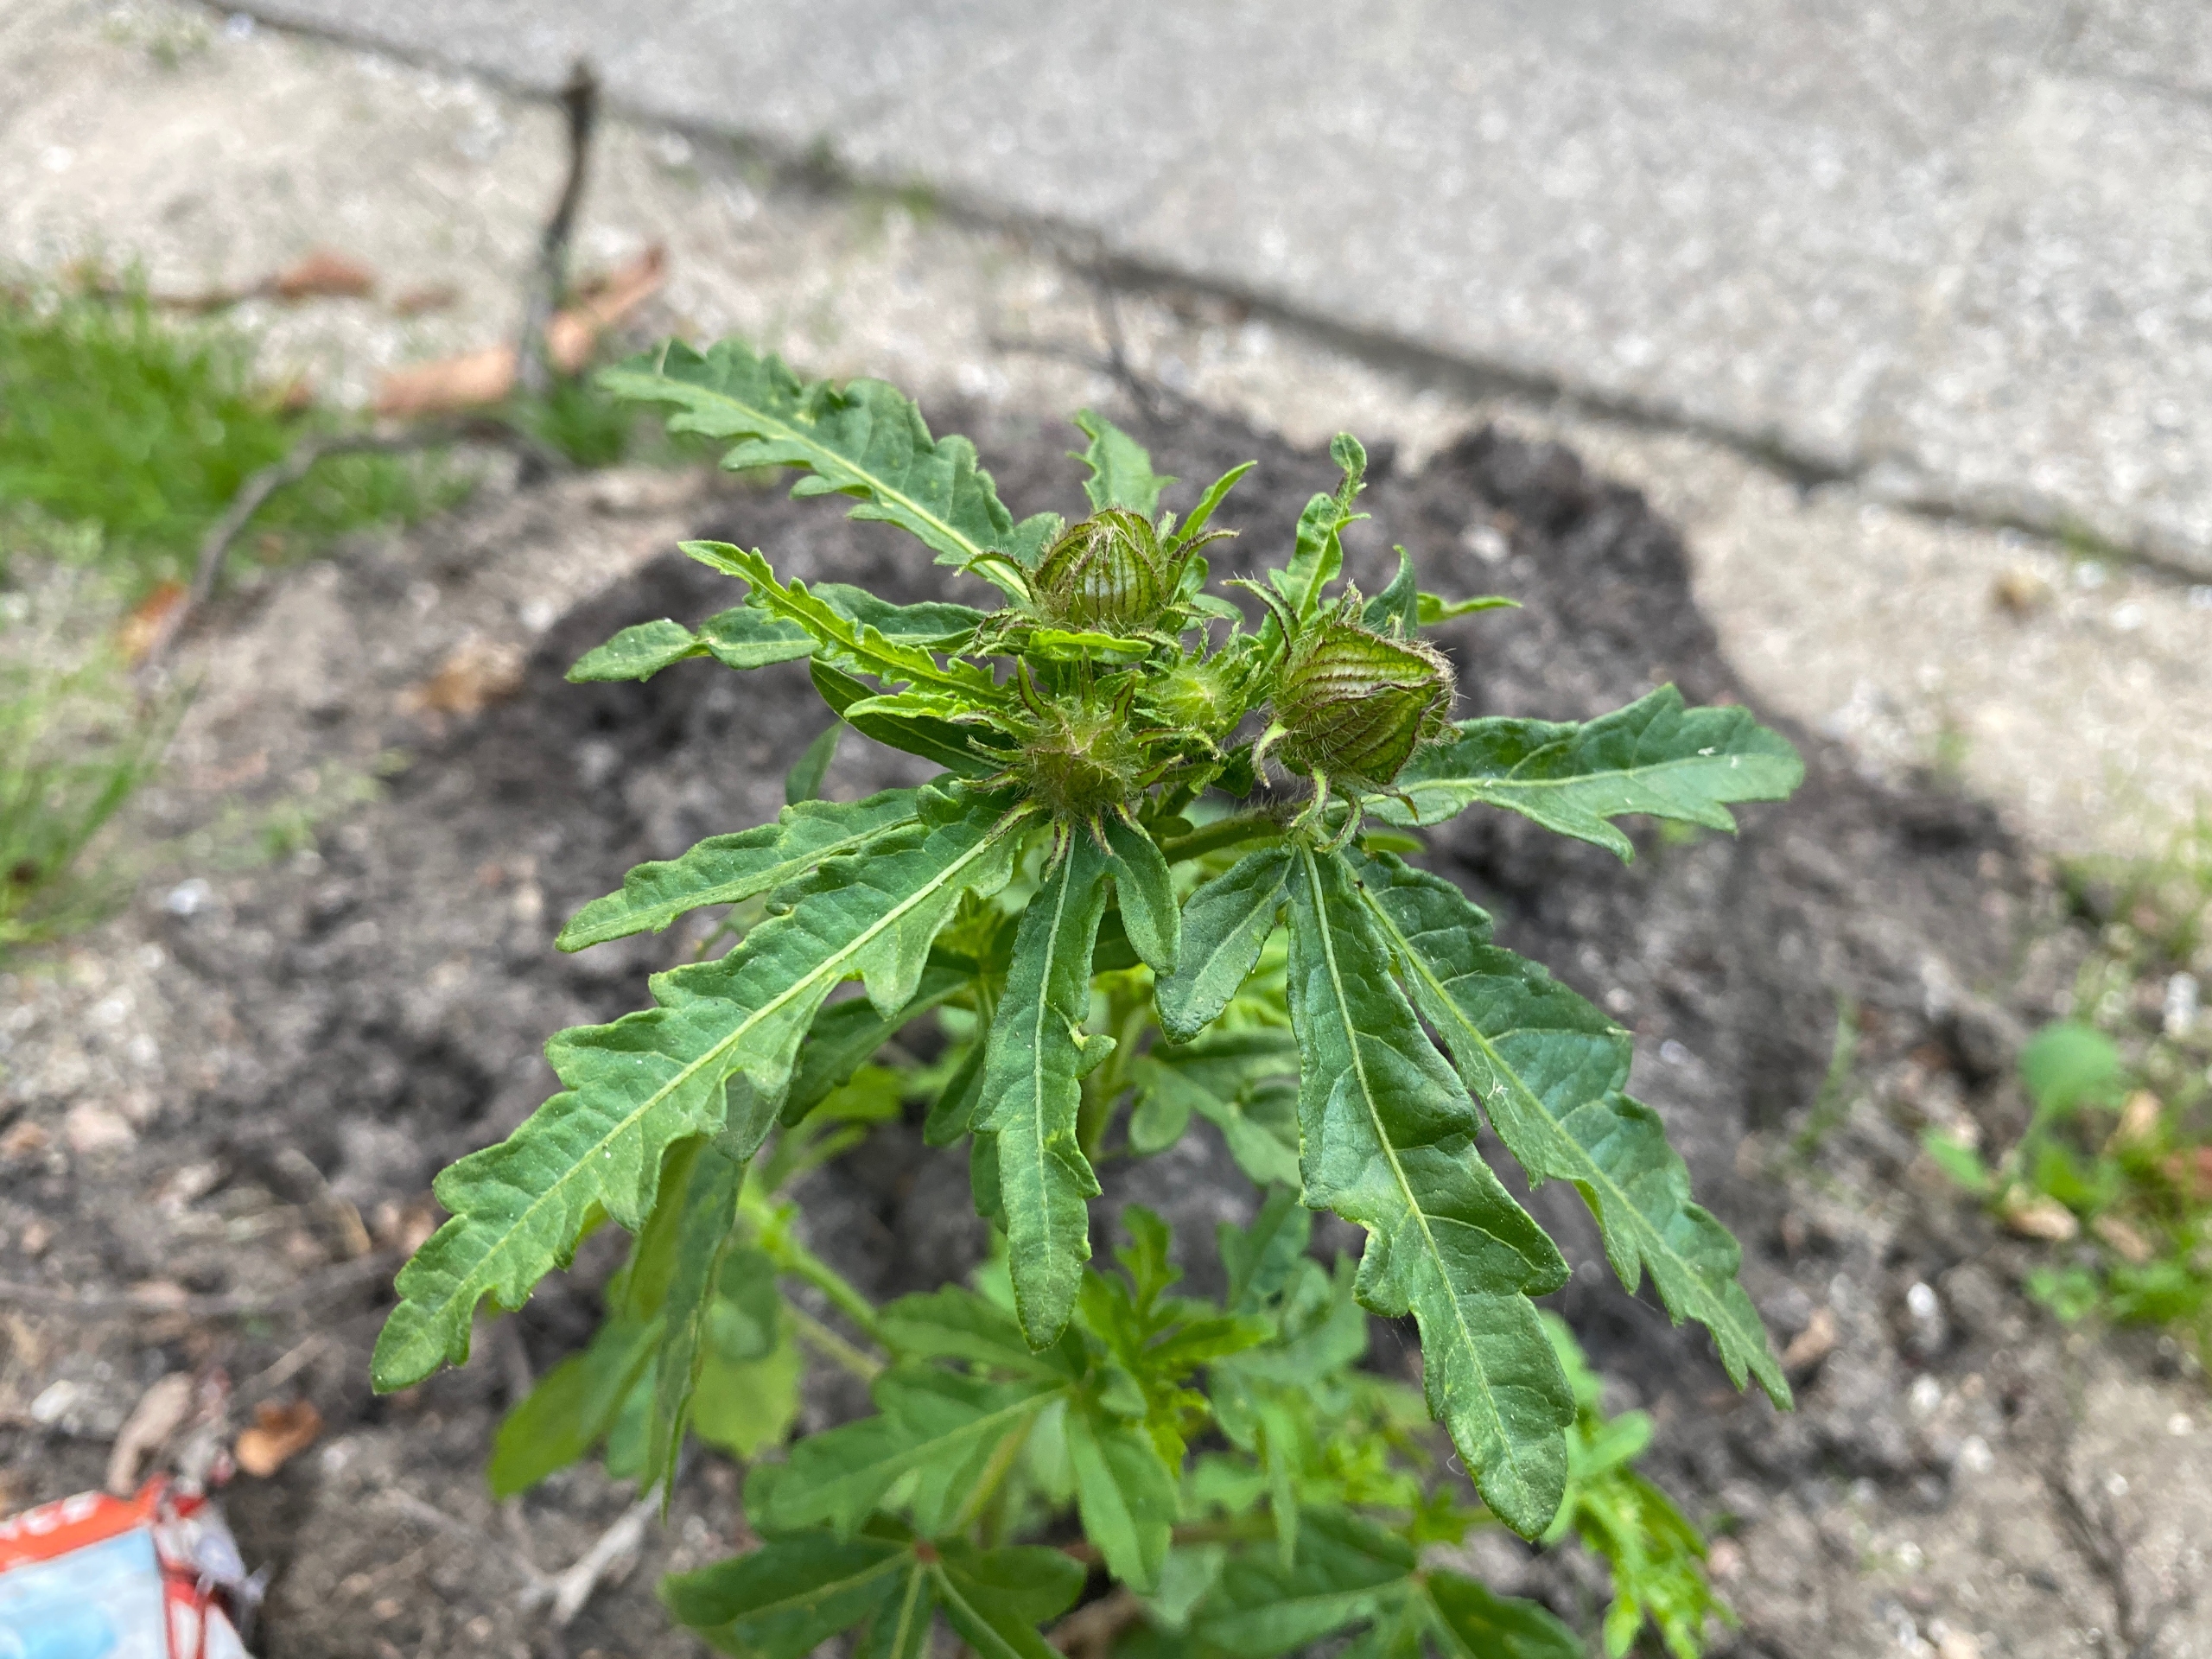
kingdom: Plantae
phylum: Tracheophyta
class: Magnoliopsida
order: Malvales
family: Malvaceae
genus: Hibiscus
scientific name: Hibiscus trionum
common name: Læge-katost
